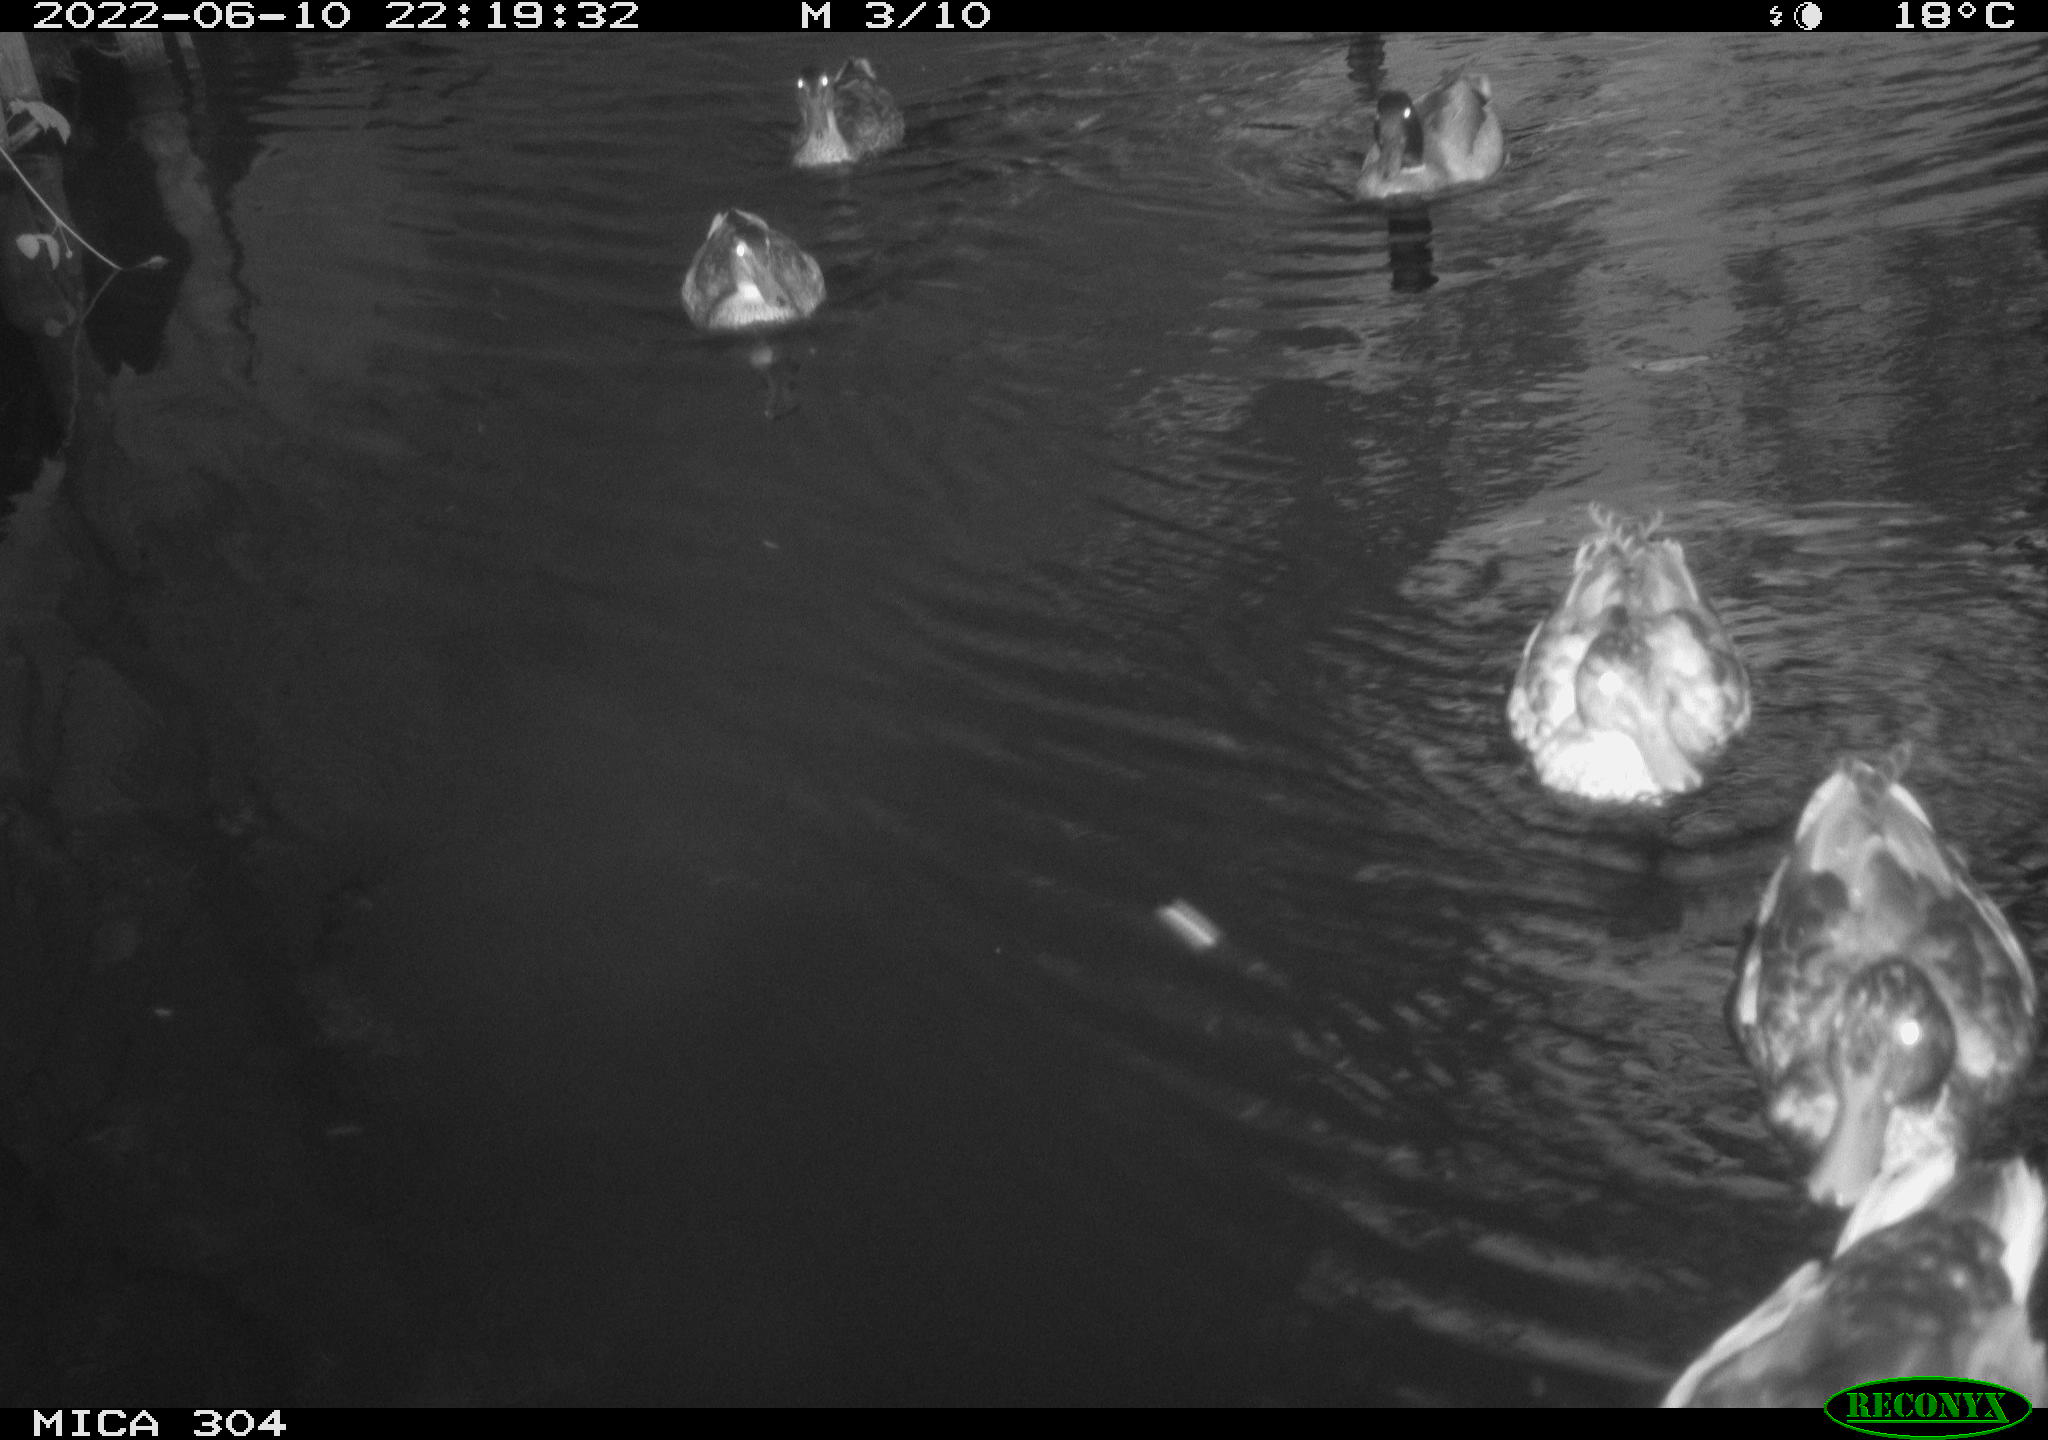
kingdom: Animalia
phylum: Chordata
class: Aves
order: Anseriformes
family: Anatidae
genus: Mareca
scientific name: Mareca strepera
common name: Gadwall
